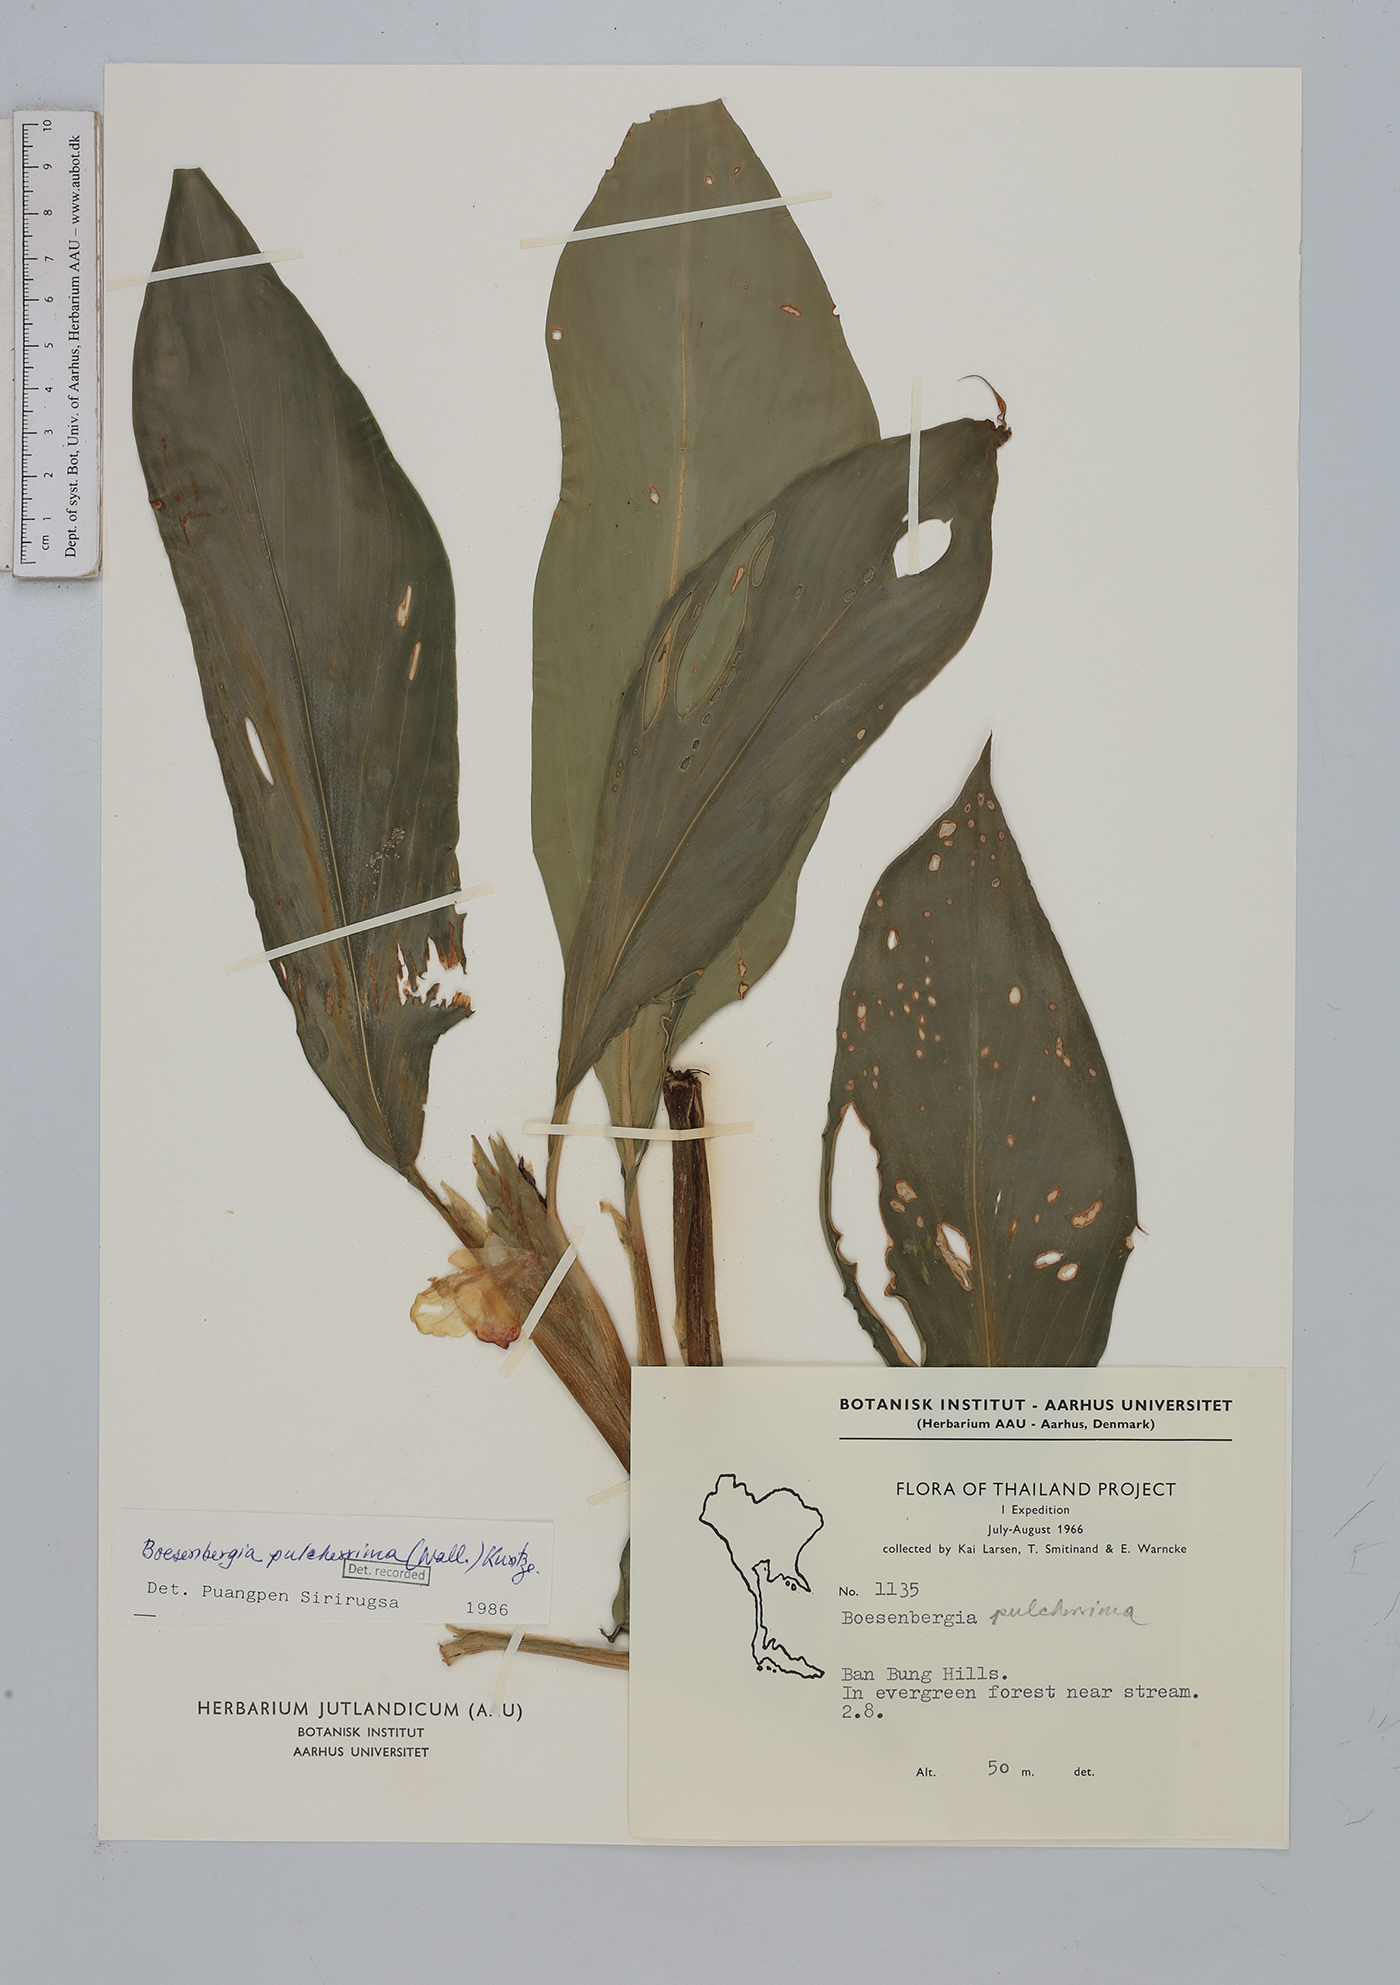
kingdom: Plantae
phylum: Tracheophyta
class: Liliopsida
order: Zingiberales
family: Zingiberaceae
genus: Boesenbergia
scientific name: Boesenbergia pulcherrima
